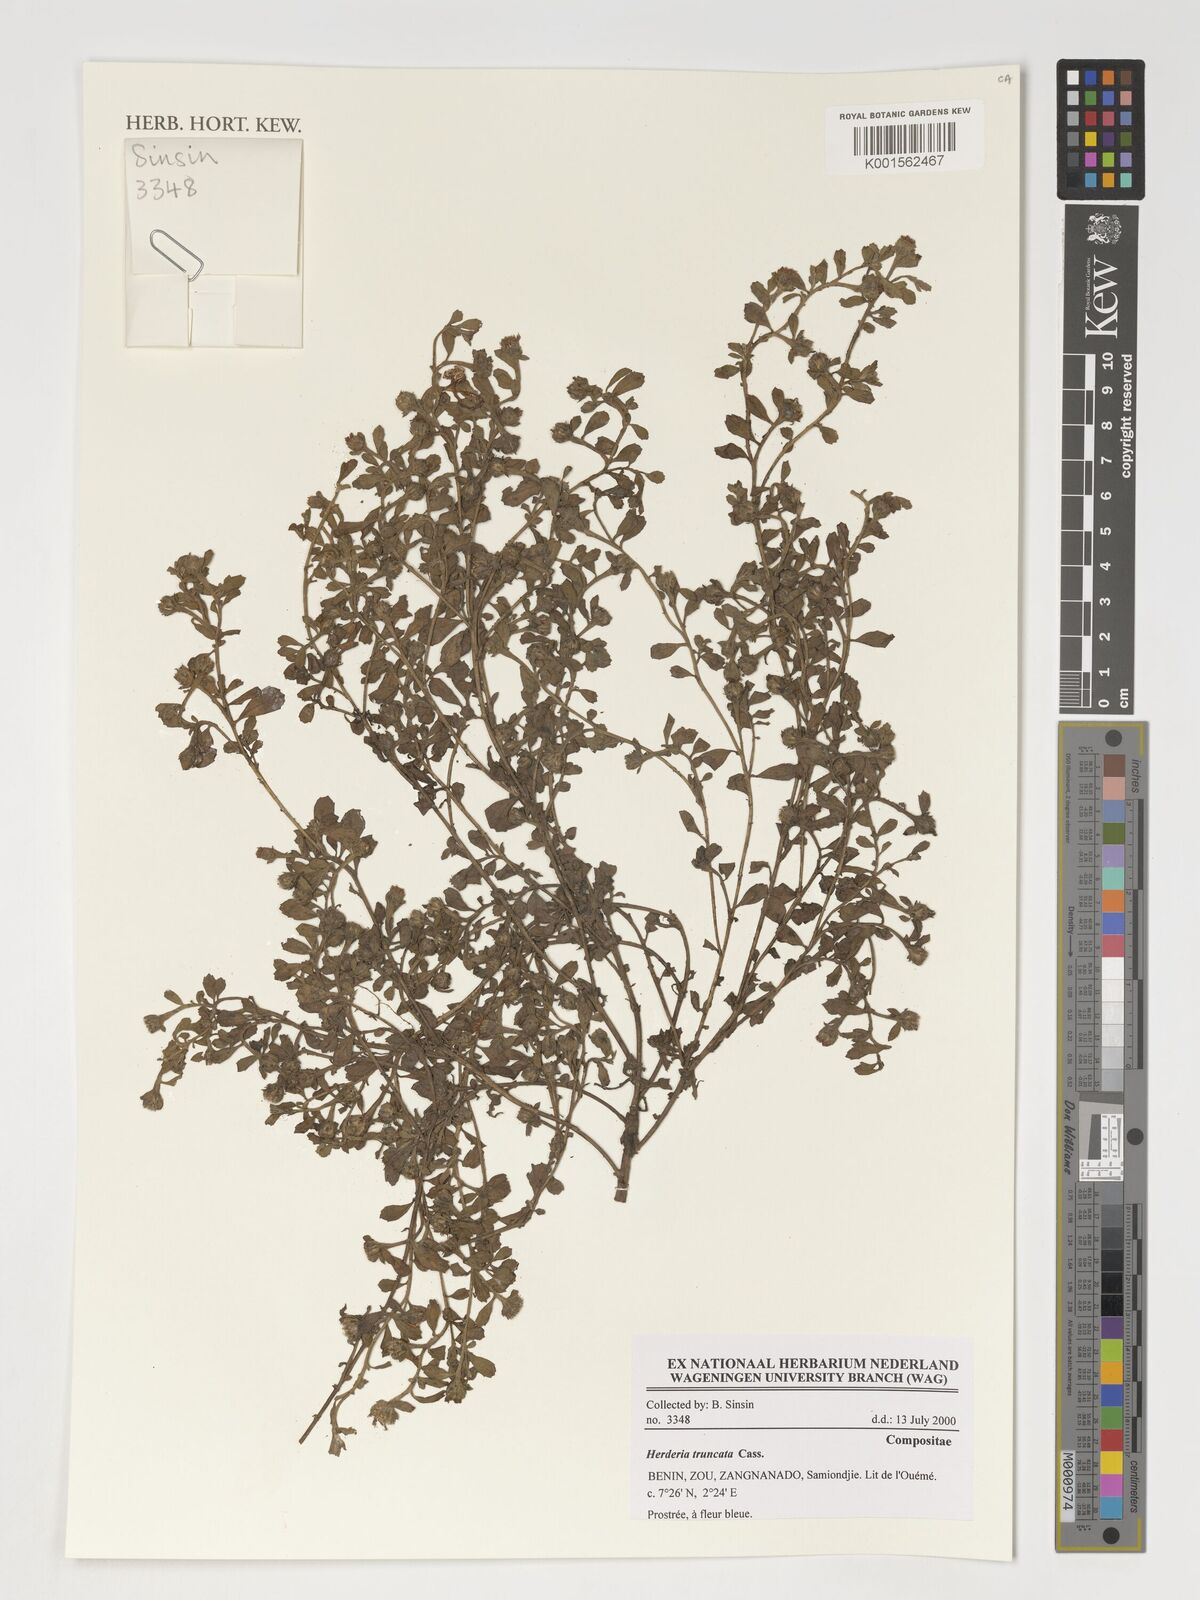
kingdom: Plantae
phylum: Tracheophyta
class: Magnoliopsida
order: Asterales
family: Asteraceae
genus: Herderia
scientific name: Herderia truncata
